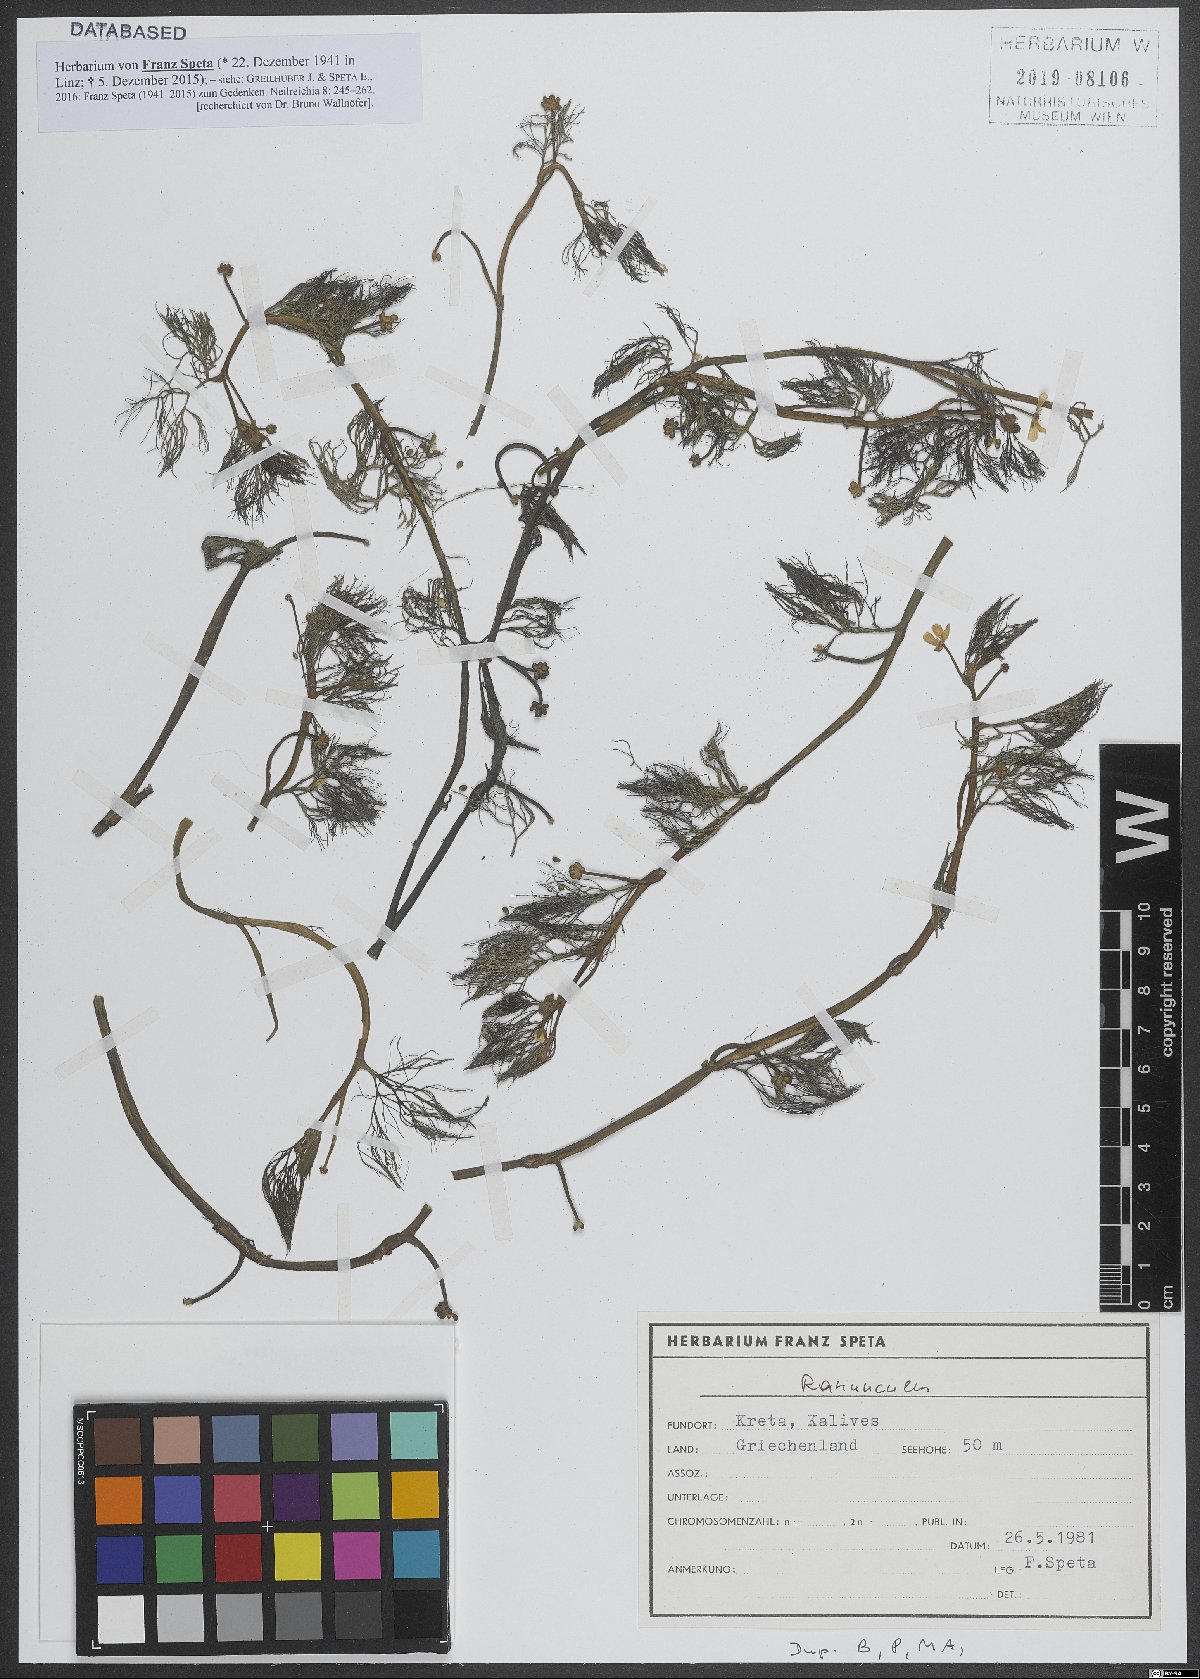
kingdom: Plantae
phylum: Tracheophyta
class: Magnoliopsida
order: Ranunculales
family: Ranunculaceae
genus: Ranunculus
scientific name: Ranunculus trichophyllus
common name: Thread-leaved water-crowfoot
